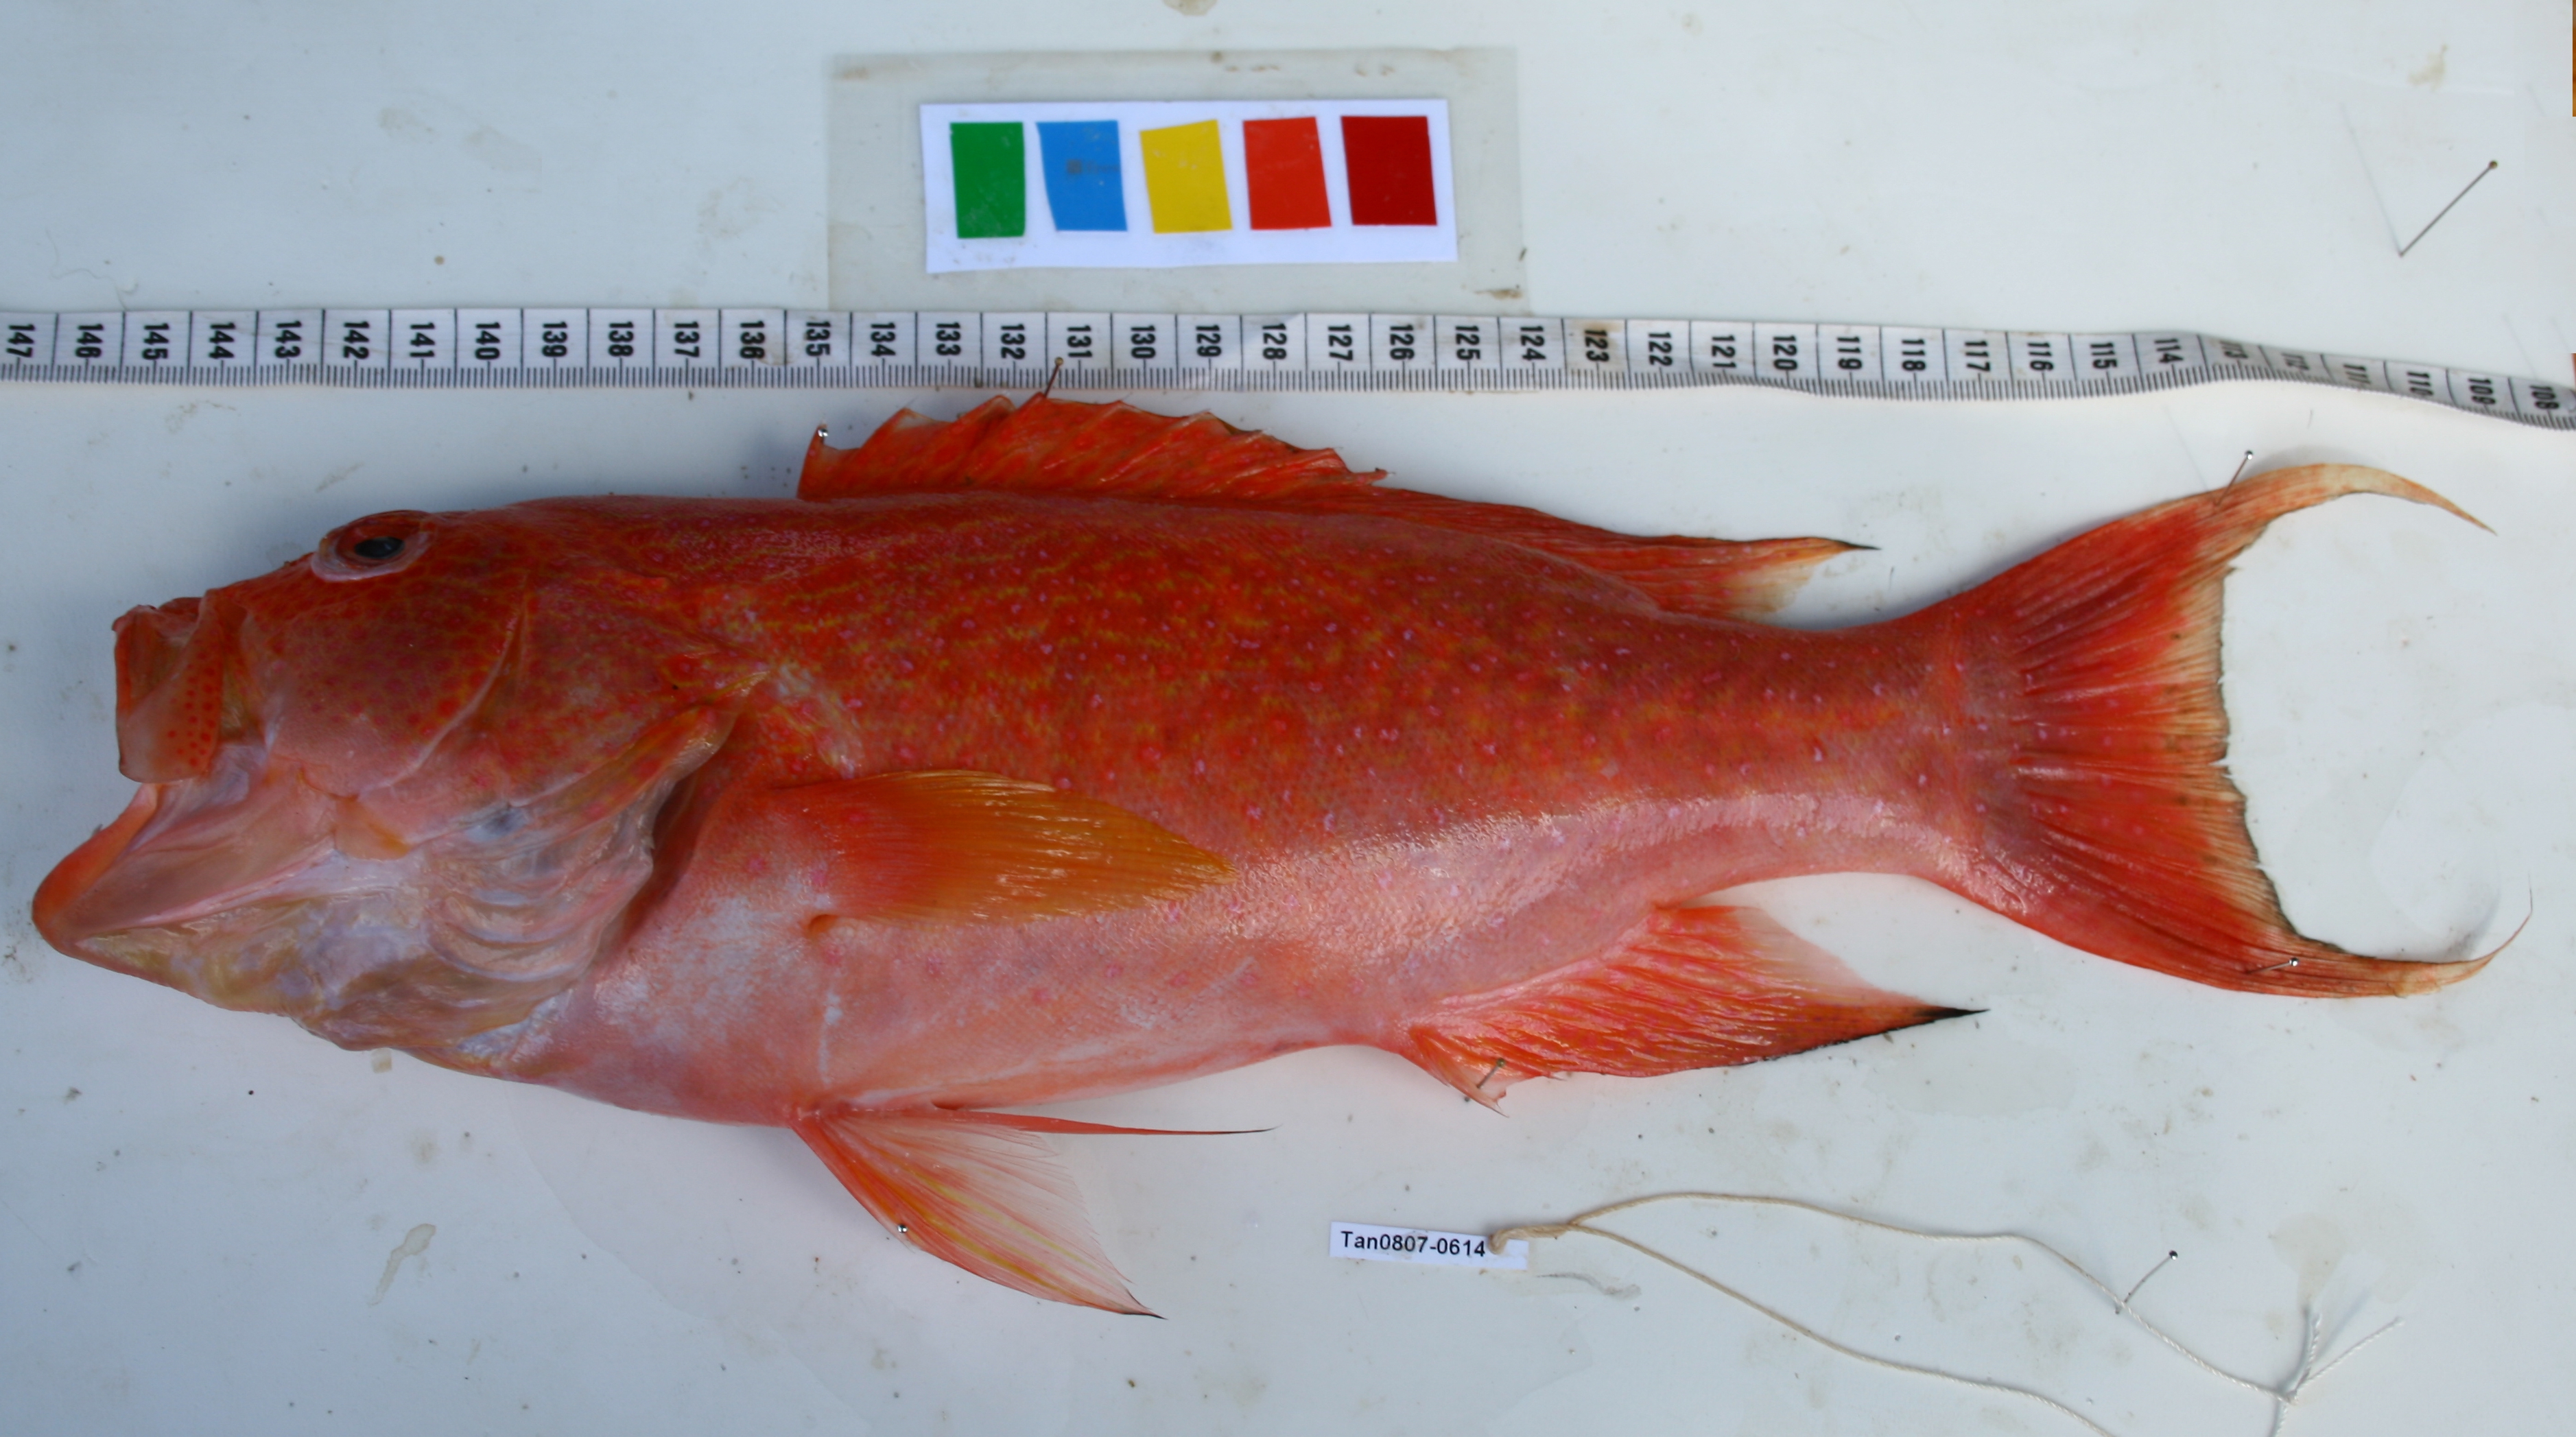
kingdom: Animalia
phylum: Chordata
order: Perciformes
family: Serranidae
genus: Variola
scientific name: Variola albimarginata
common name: Lunar-tailed grouper
